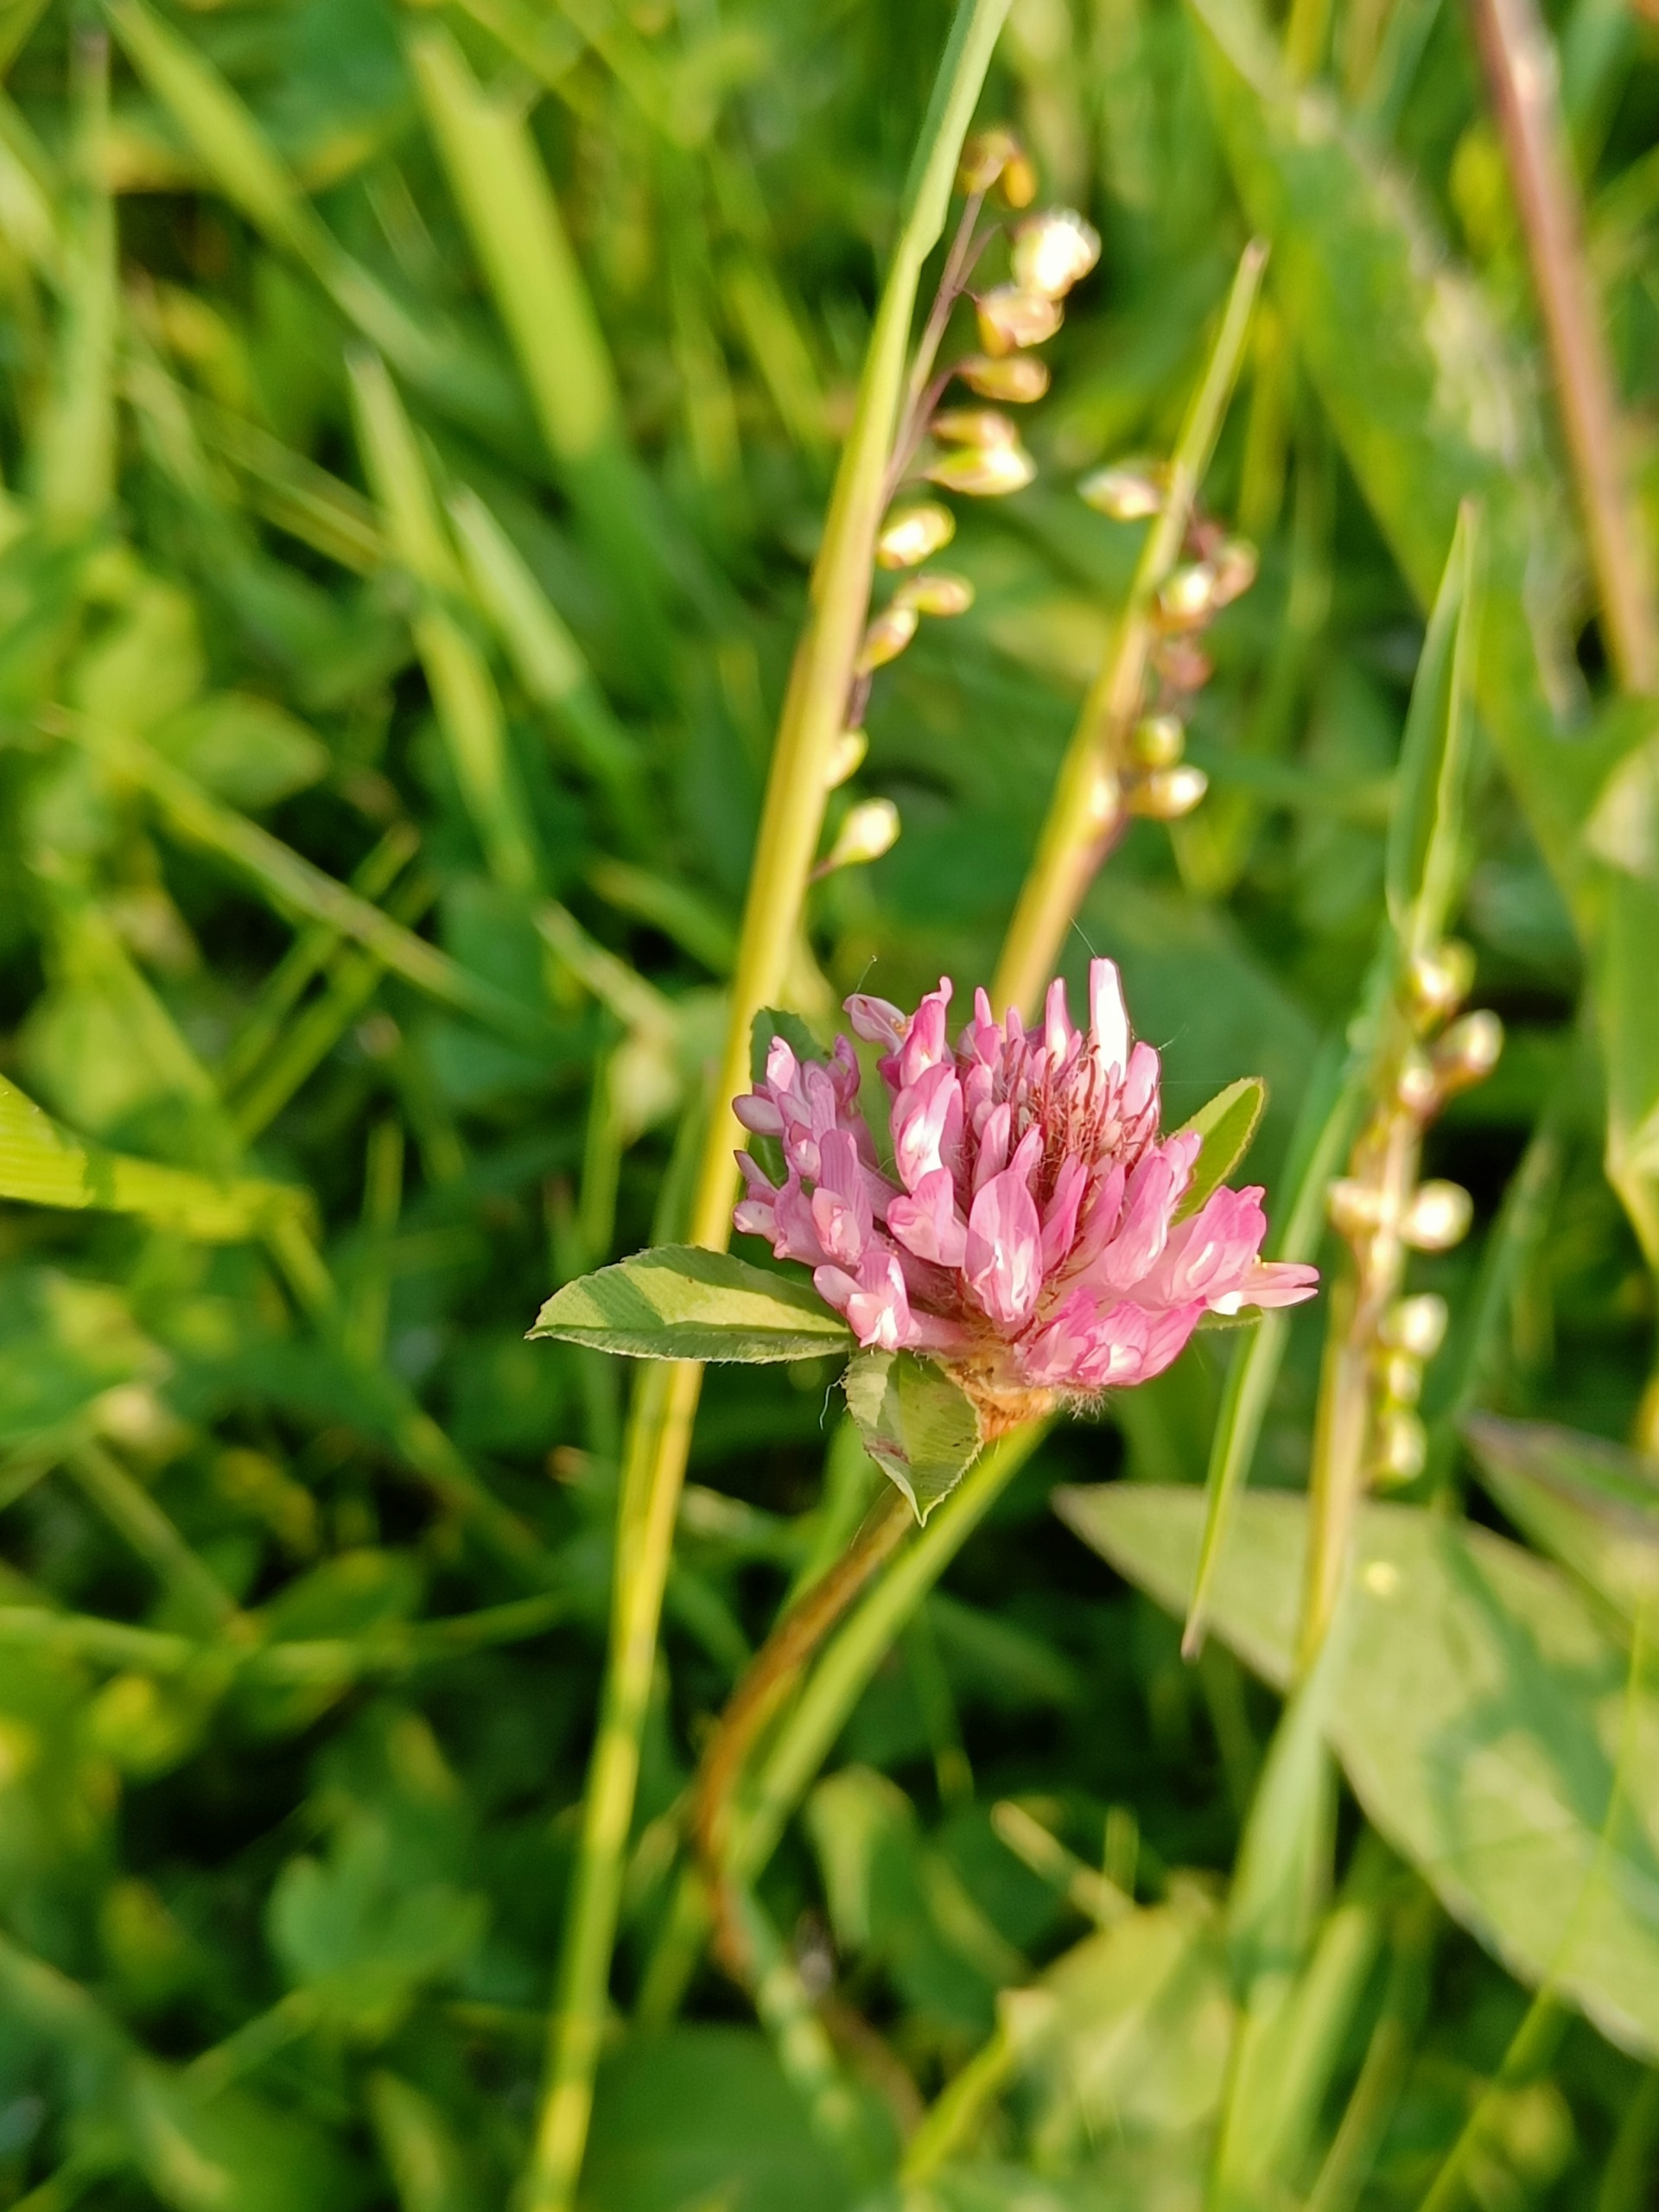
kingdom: Plantae
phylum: Tracheophyta
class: Magnoliopsida
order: Fabales
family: Fabaceae
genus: Trifolium
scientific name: Trifolium pratense
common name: Rød-kløver
